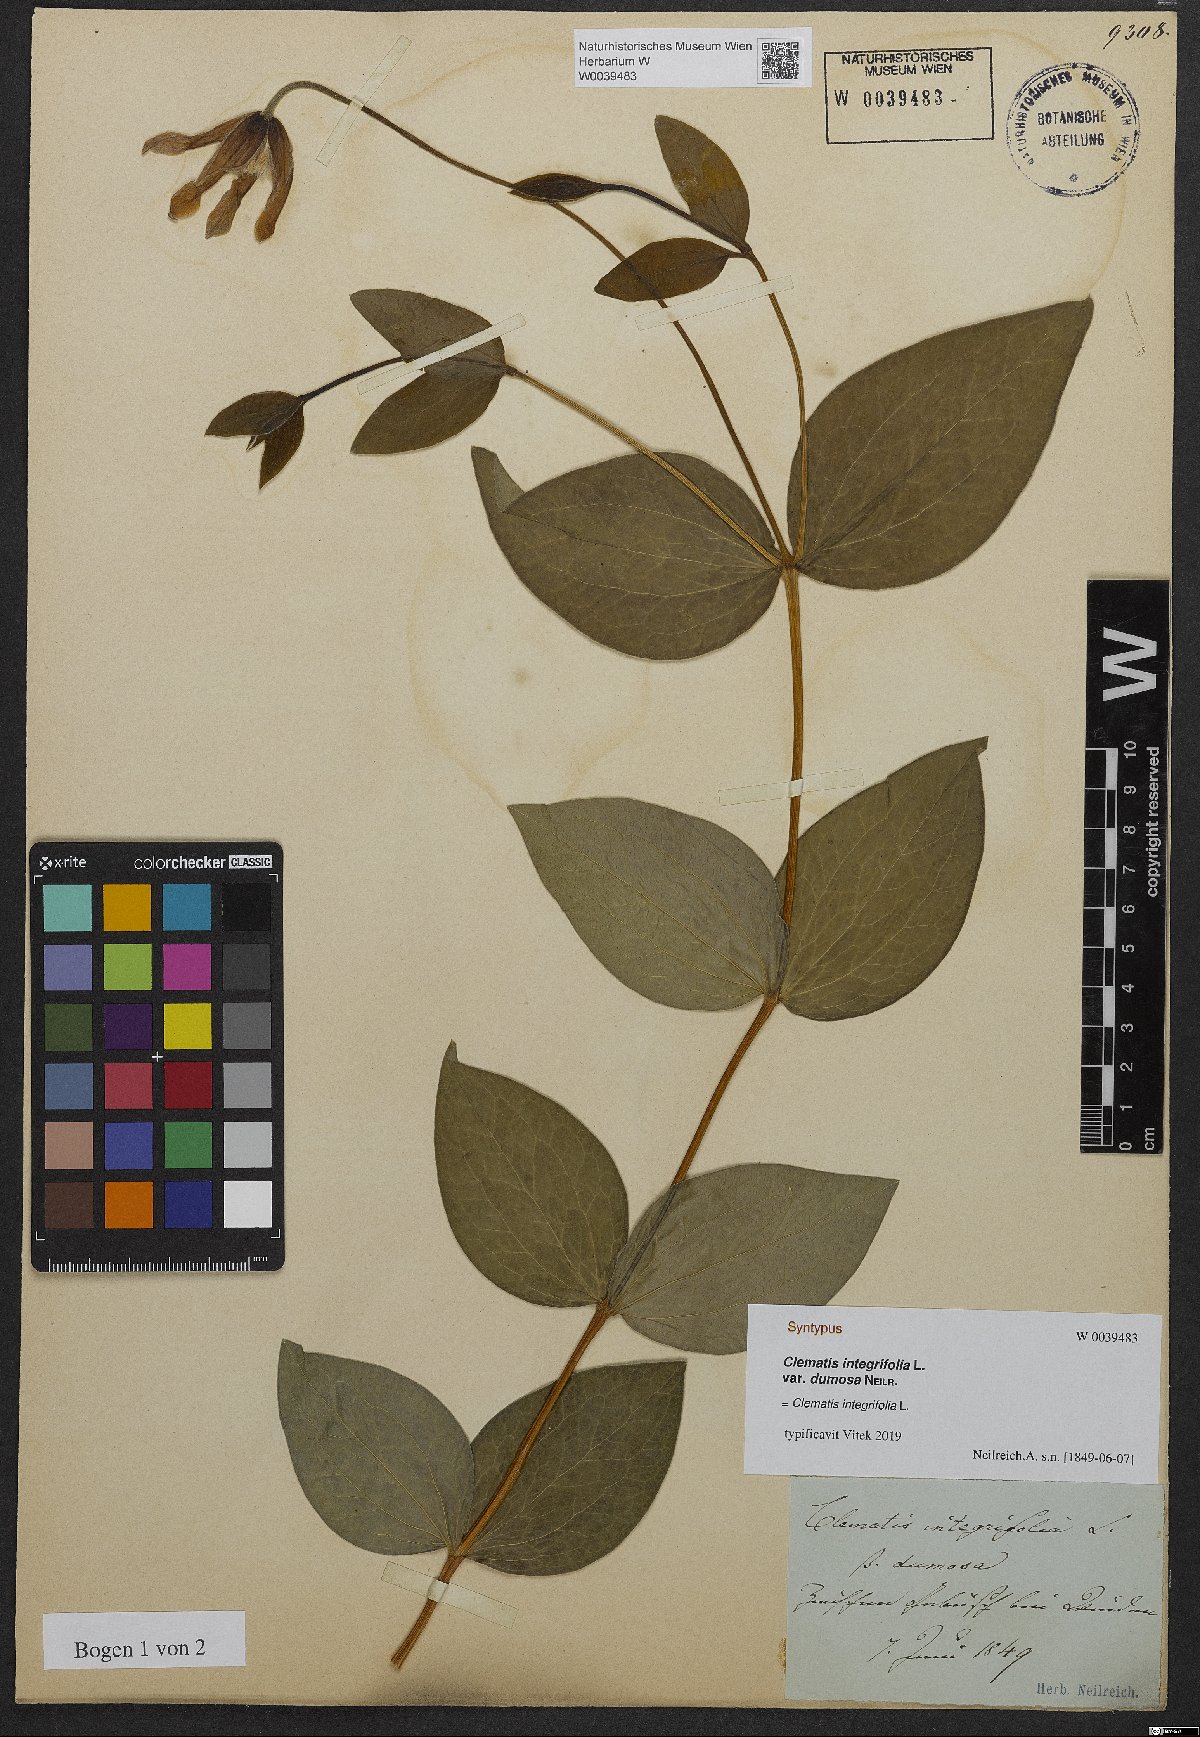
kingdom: Plantae
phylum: Tracheophyta
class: Magnoliopsida
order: Ranunculales
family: Ranunculaceae
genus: Clematis
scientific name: Clematis integrifolia
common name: Solitary clematis
